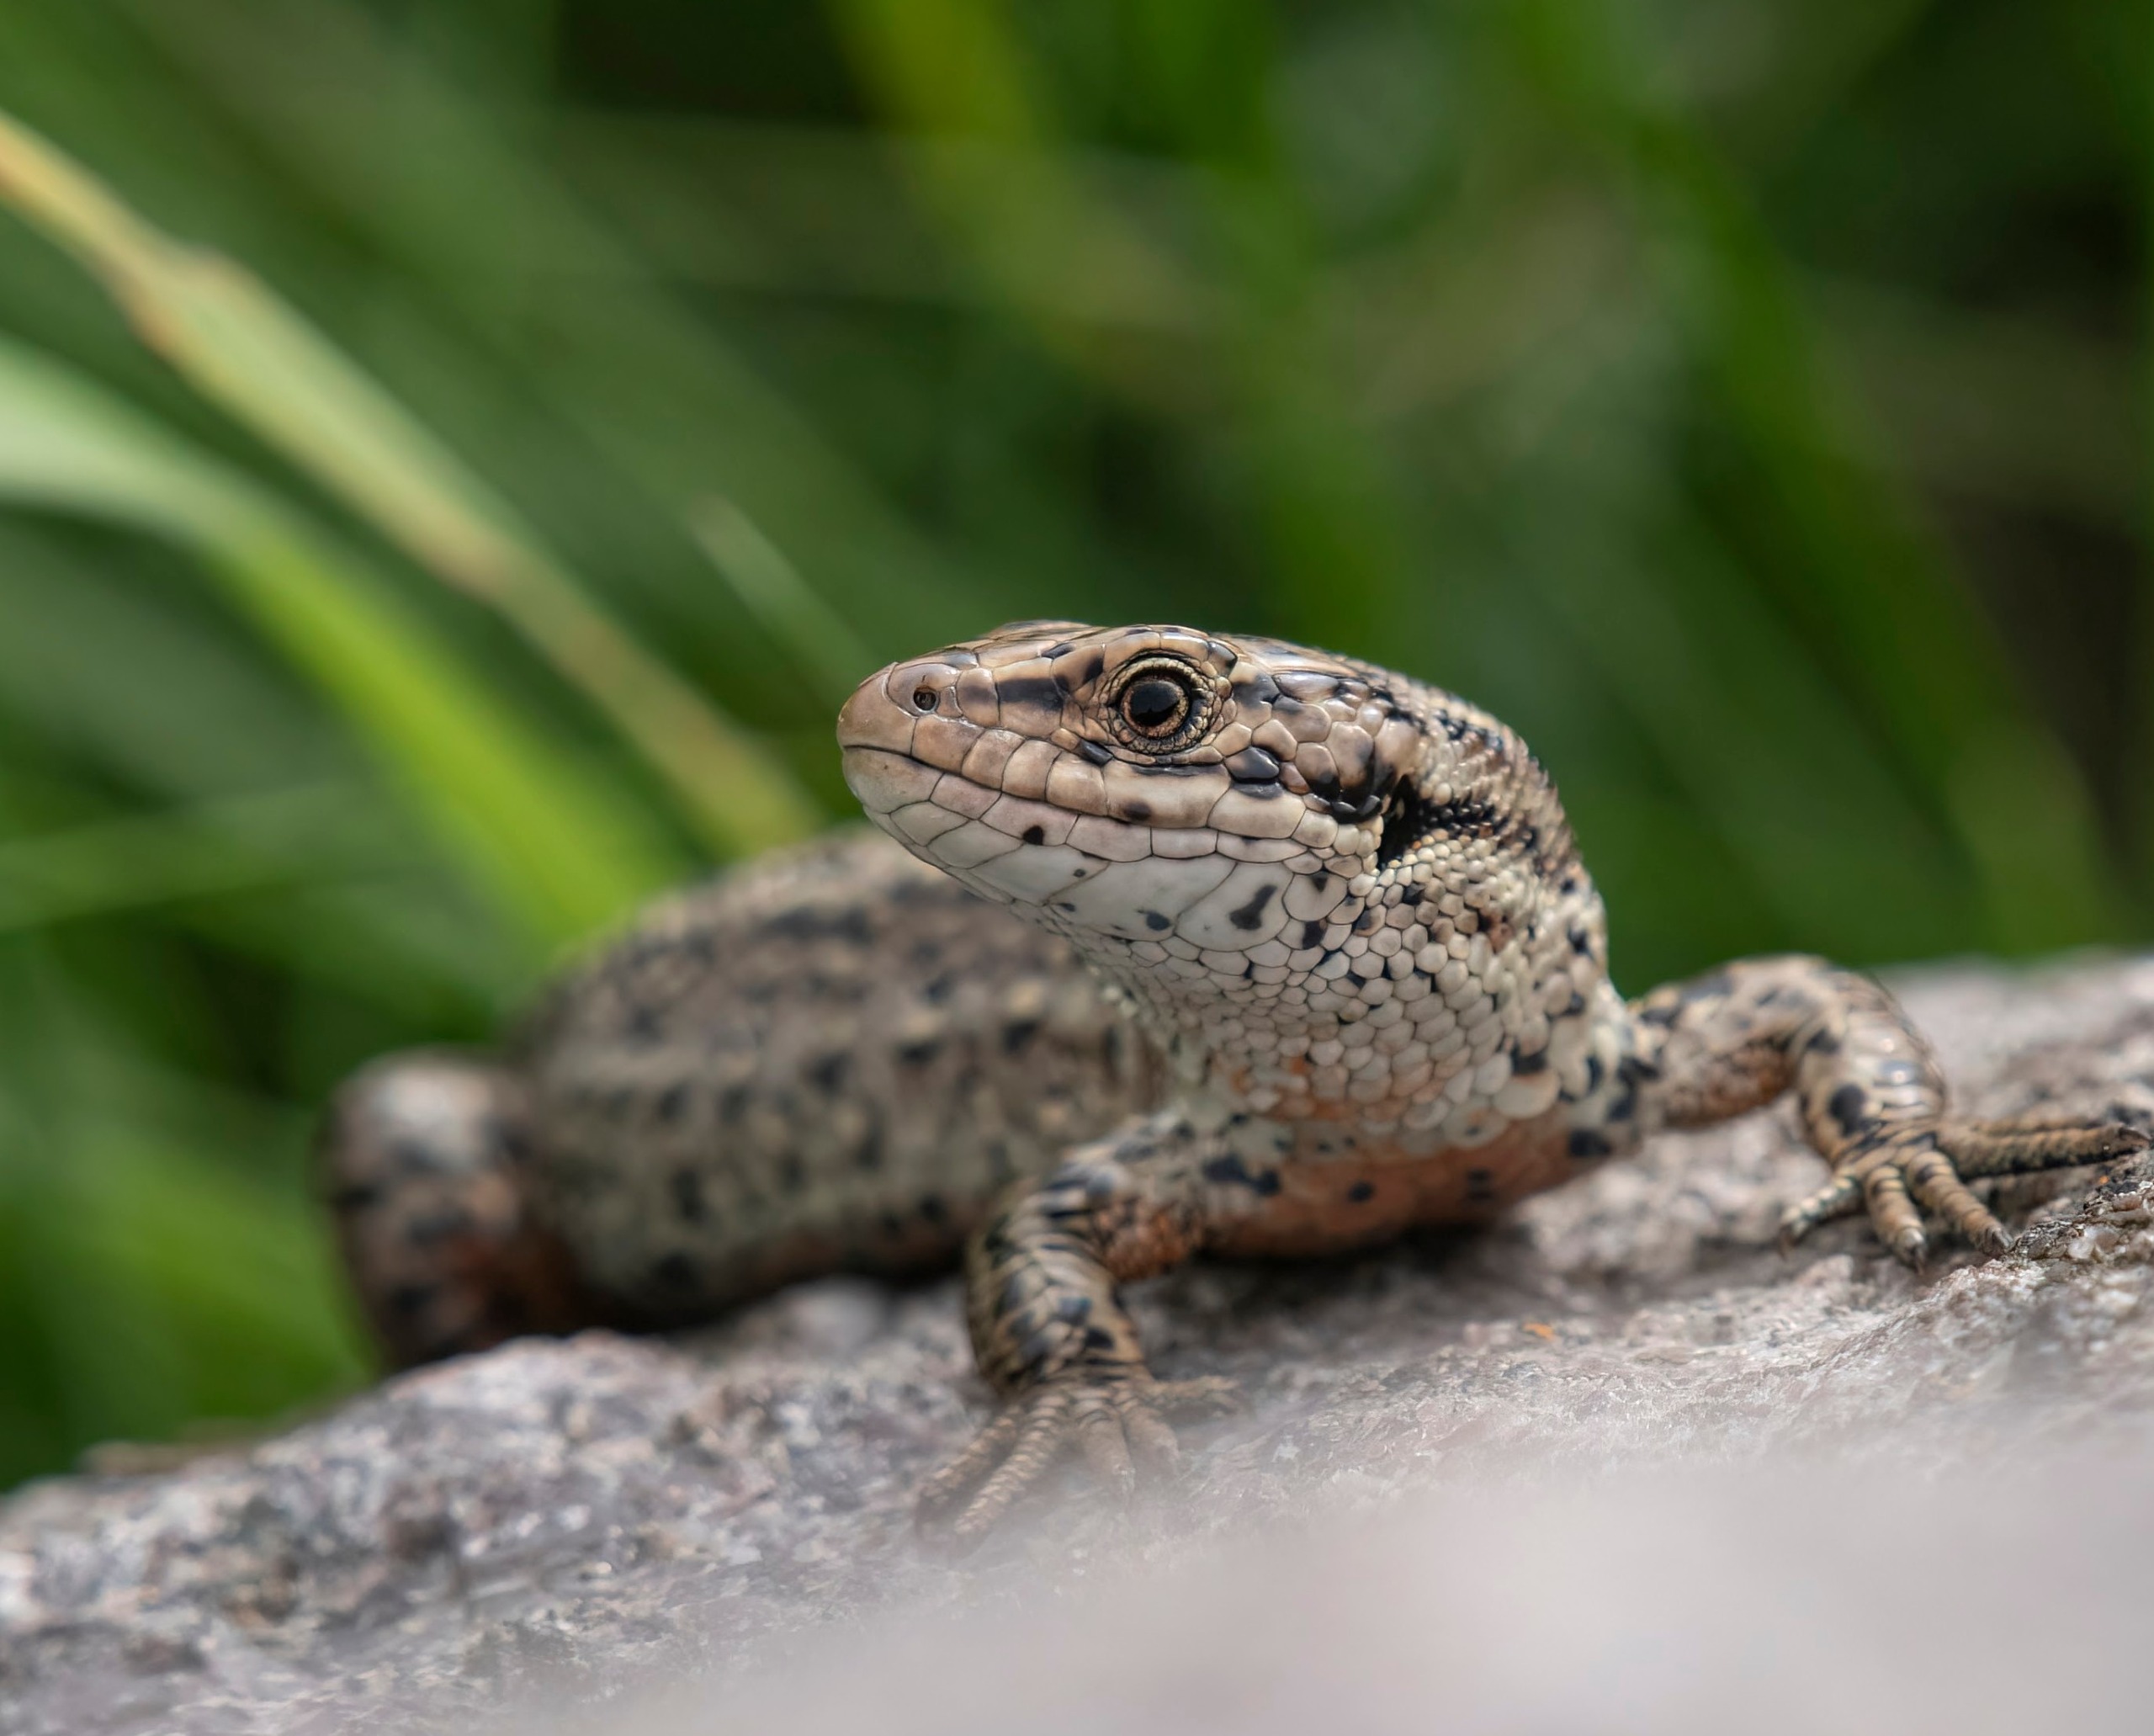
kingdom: Animalia
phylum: Chordata
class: Squamata
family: Lacertidae
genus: Zootoca
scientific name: Zootoca vivipara
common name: Skovfirben
